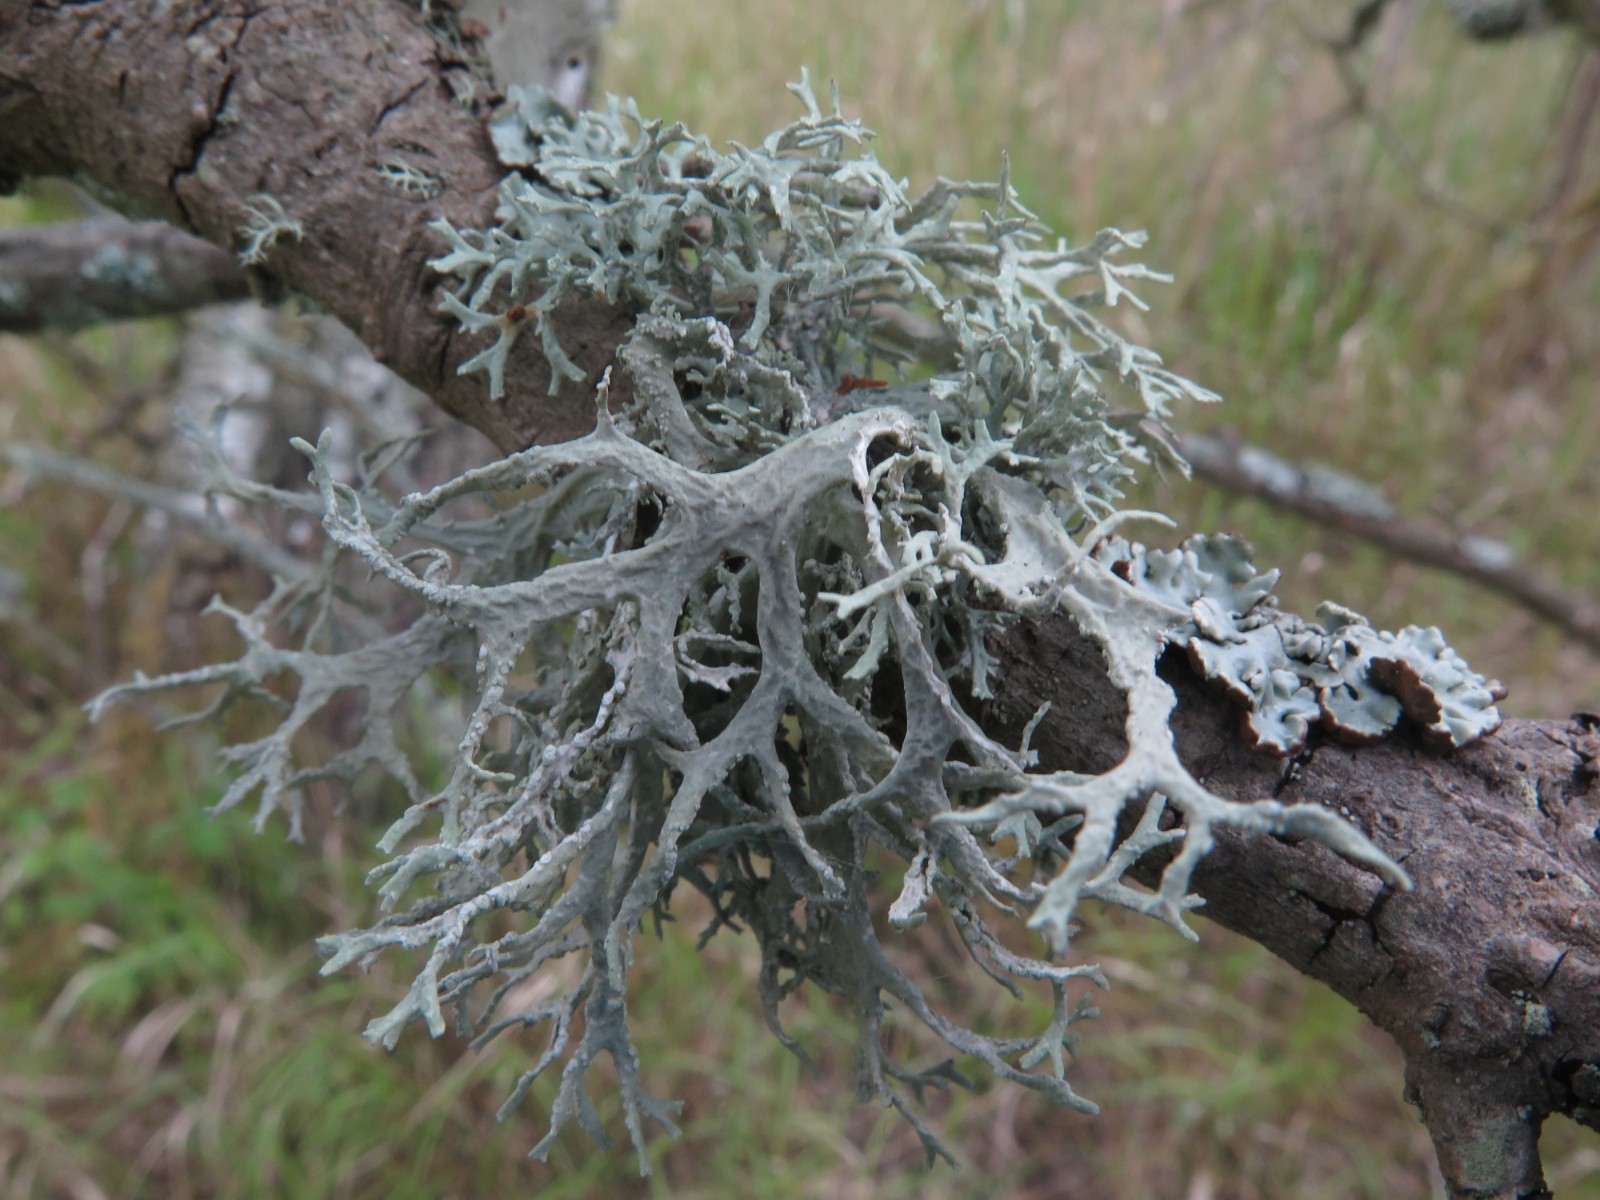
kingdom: Fungi
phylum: Ascomycota
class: Lecanoromycetes
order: Lecanorales
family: Parmeliaceae
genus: Evernia
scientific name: Evernia prunastri
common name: almindelig slåenlav
